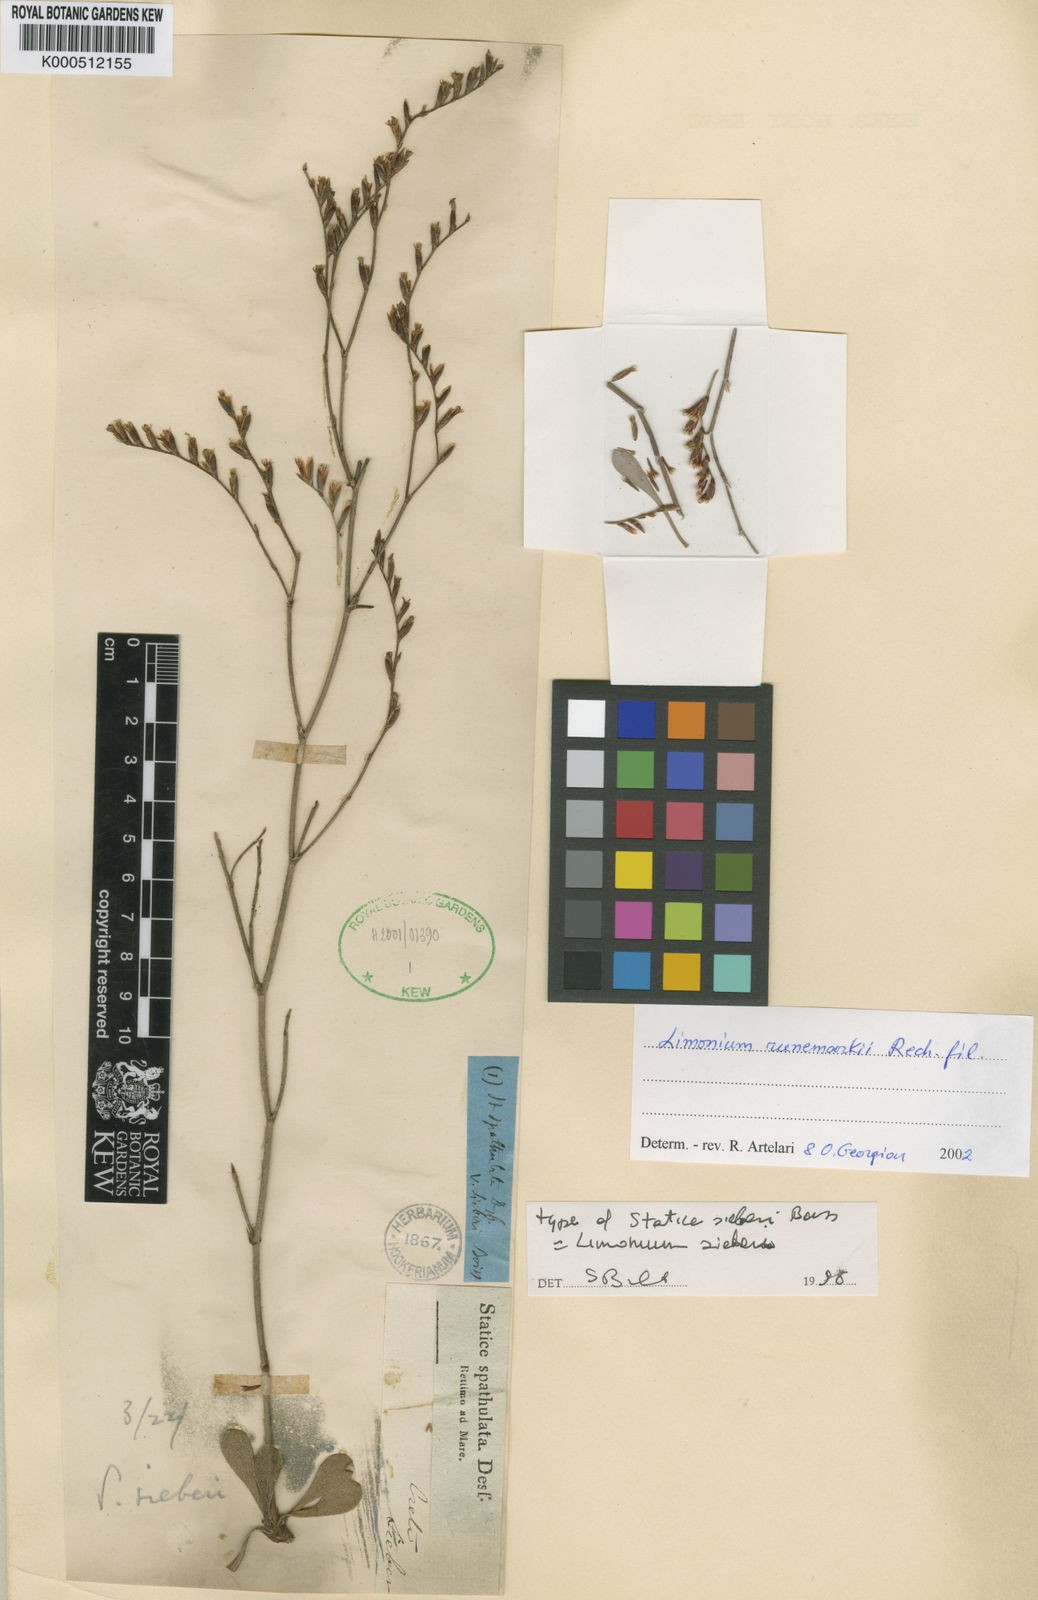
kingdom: Plantae
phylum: Tracheophyta
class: Magnoliopsida
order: Caryophyllales
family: Plumbaginaceae
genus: Limonium
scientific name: Limonium graecum
